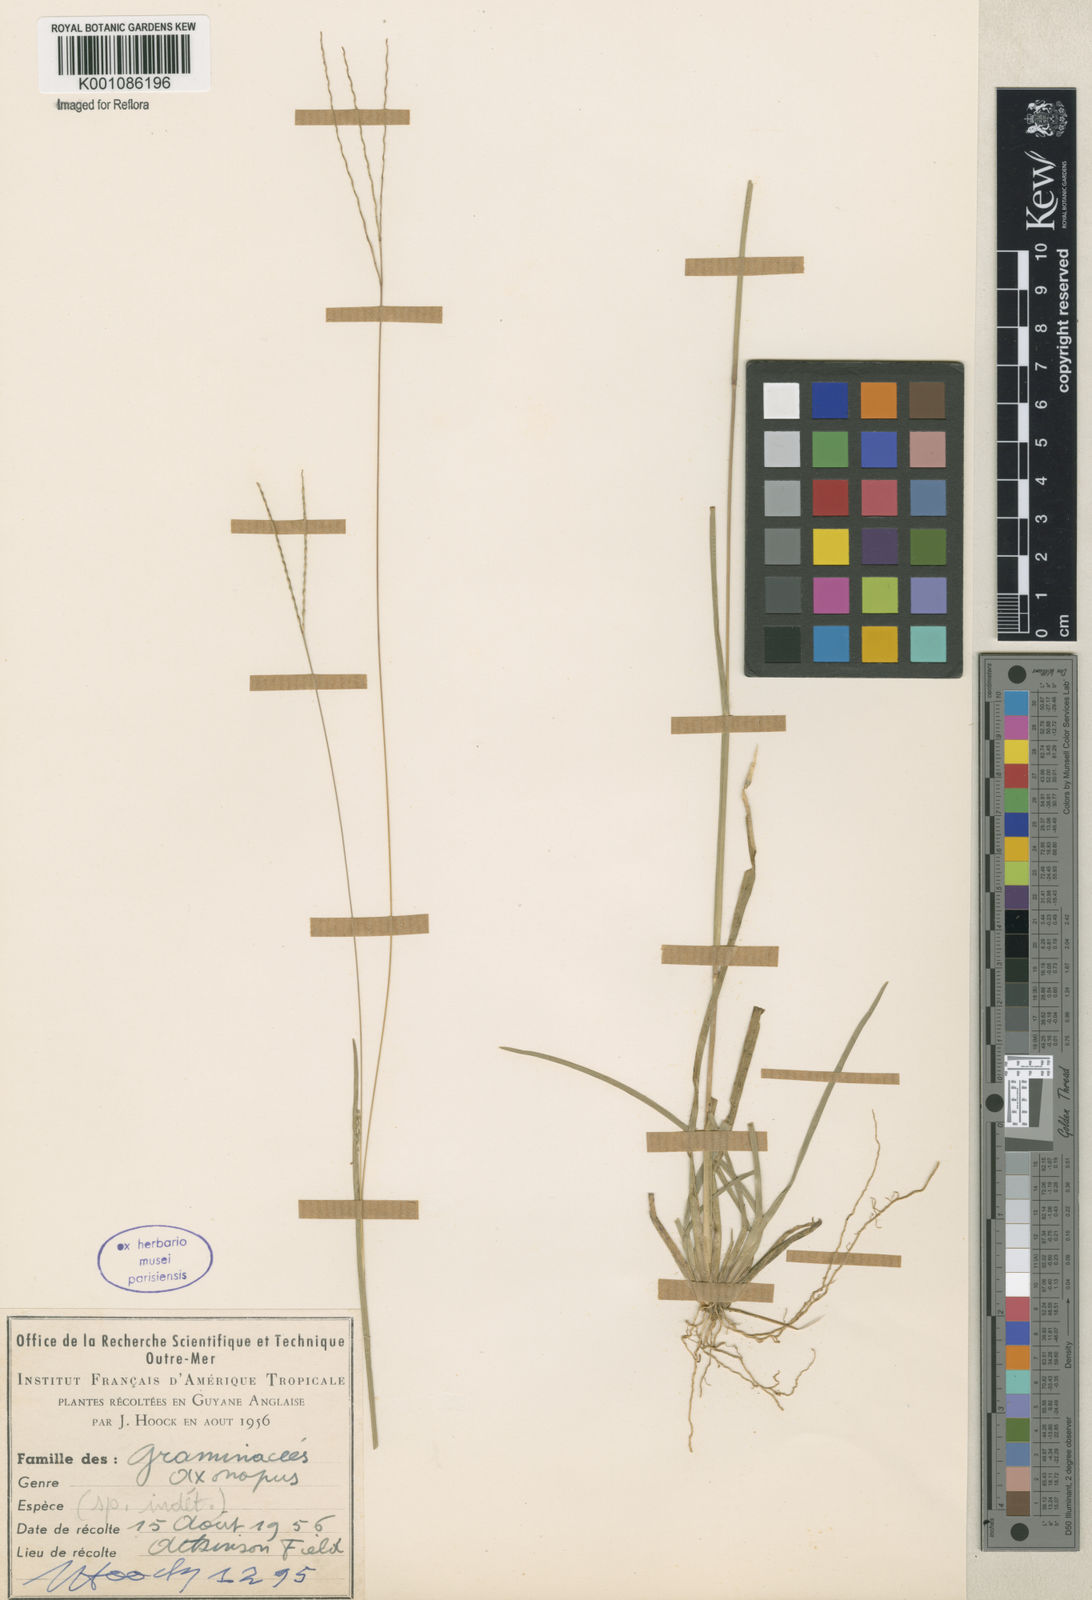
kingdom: Plantae
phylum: Tracheophyta
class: Liliopsida
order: Poales
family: Poaceae
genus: Axonopus
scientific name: Axonopus
